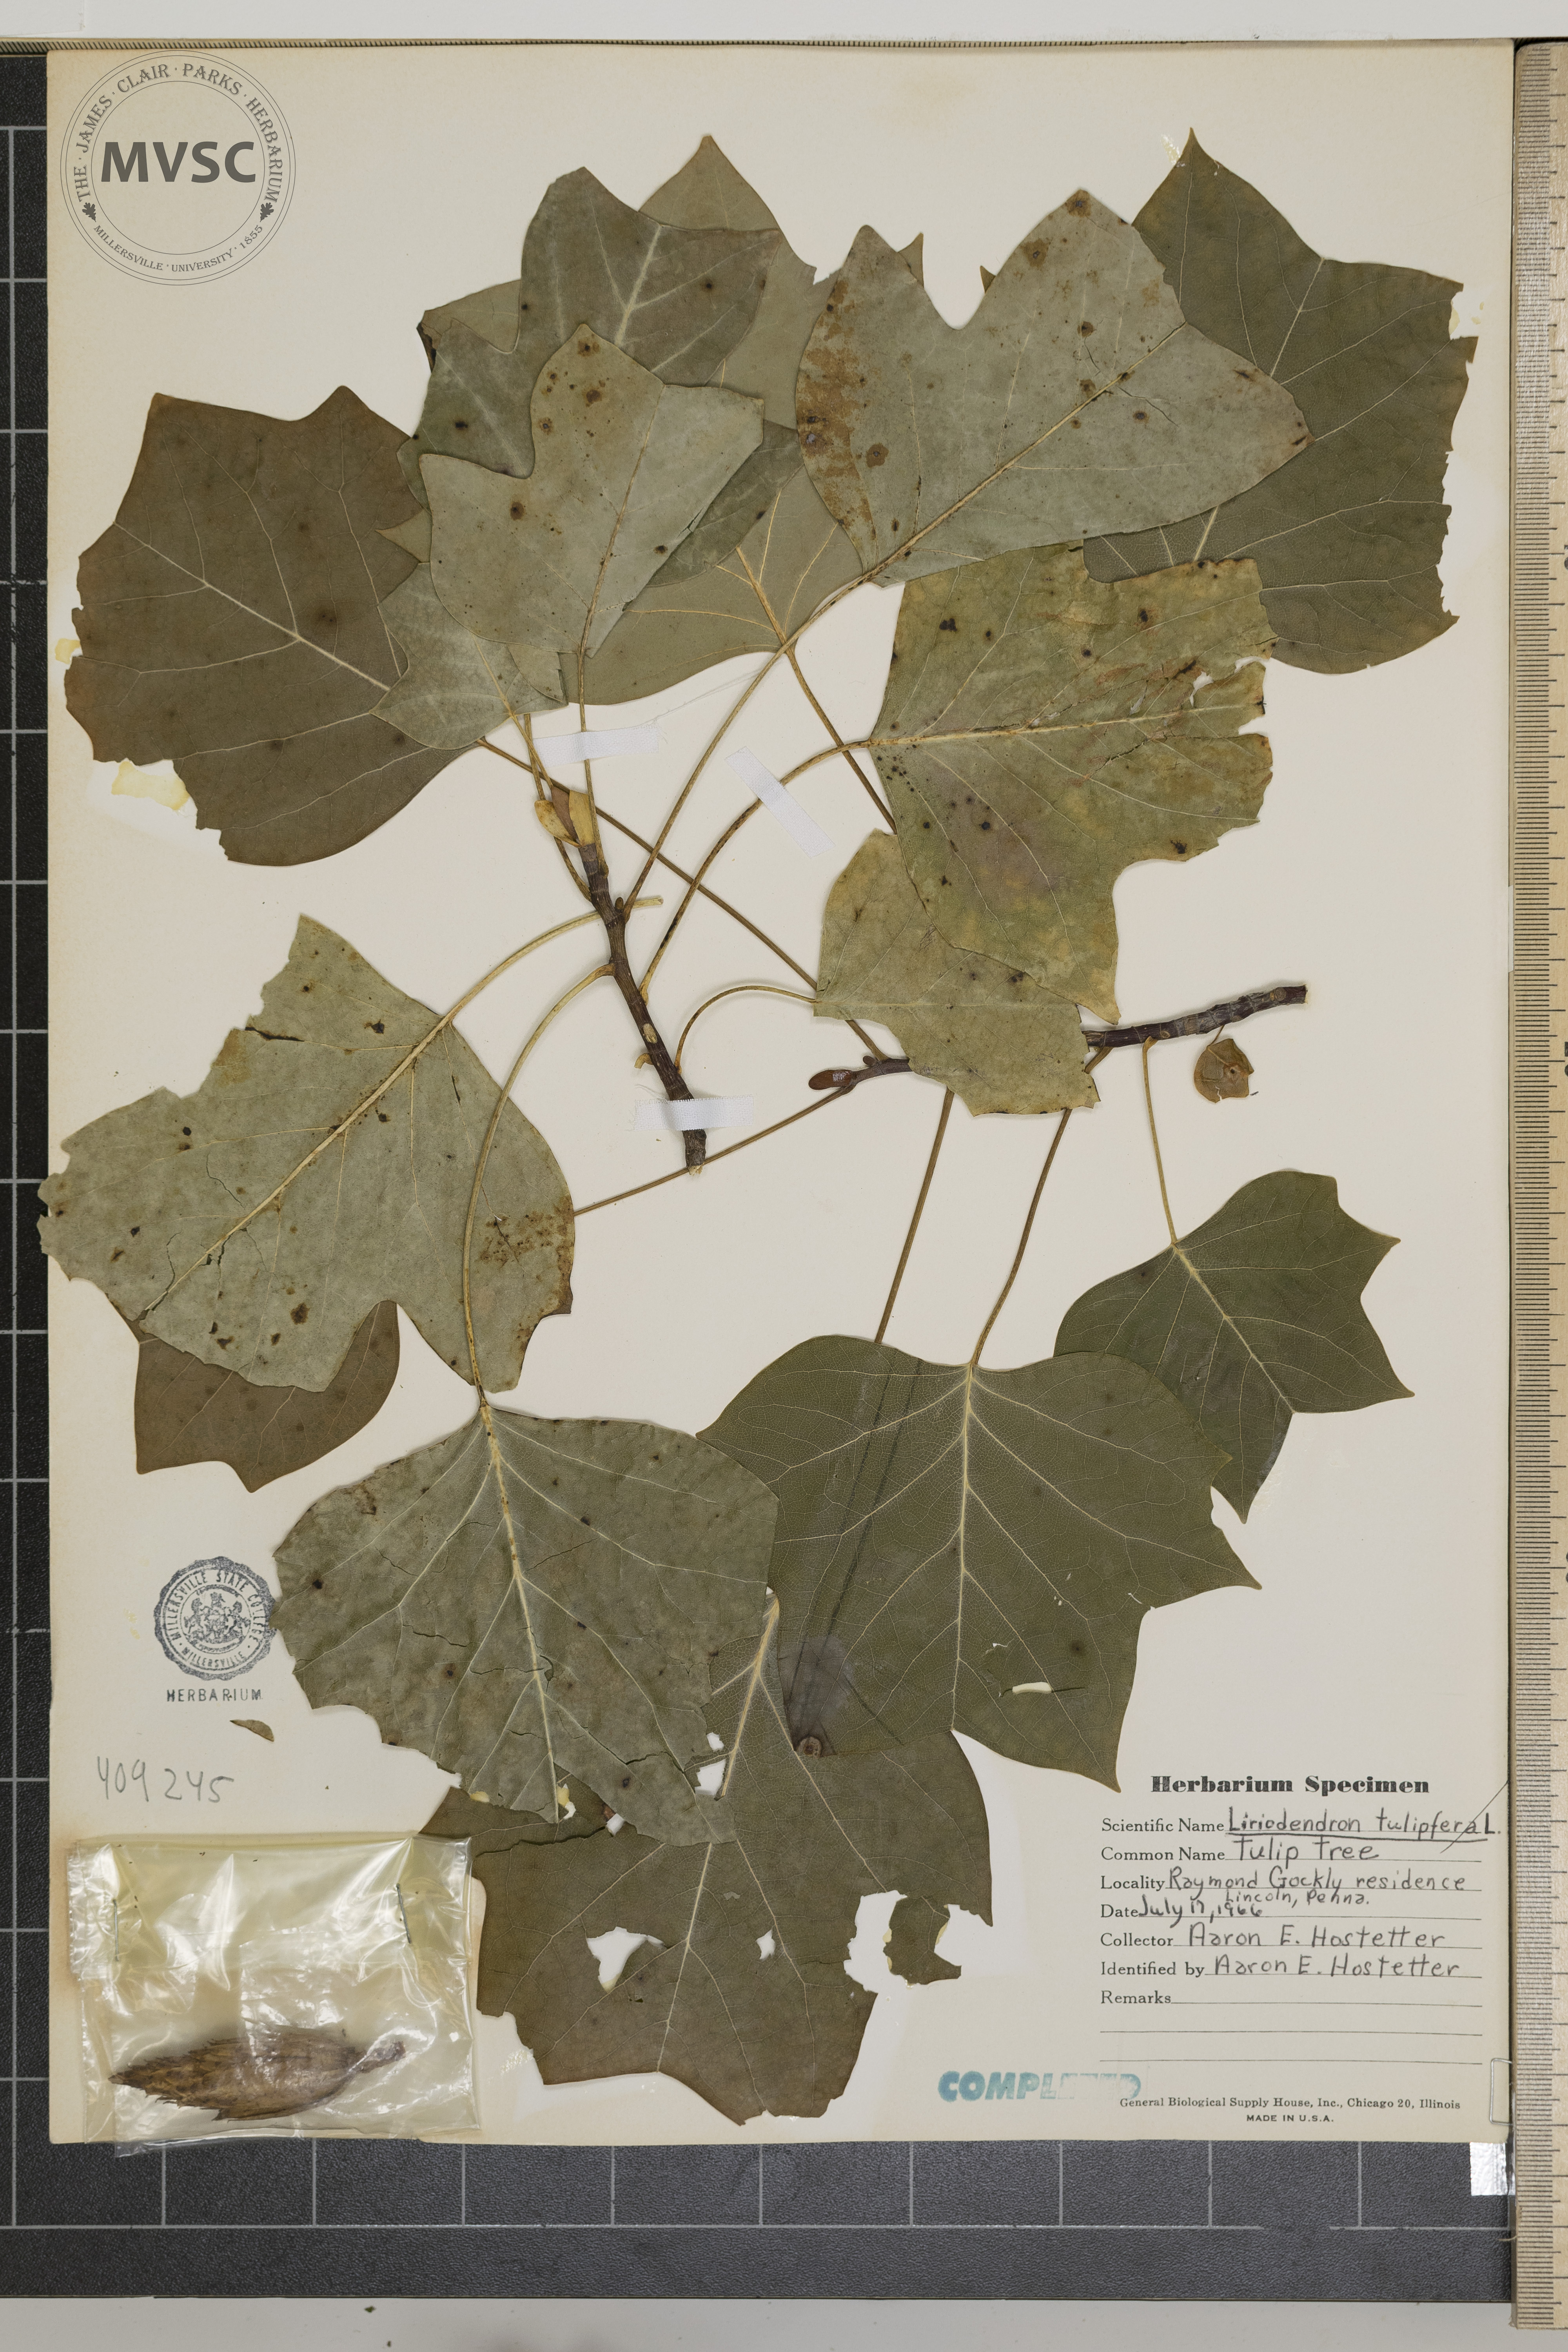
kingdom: Plantae
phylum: Tracheophyta
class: Magnoliopsida
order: Magnoliales
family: Magnoliaceae
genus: Liriodendron
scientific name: Liriodendron tulipifera
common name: Tulip tree
